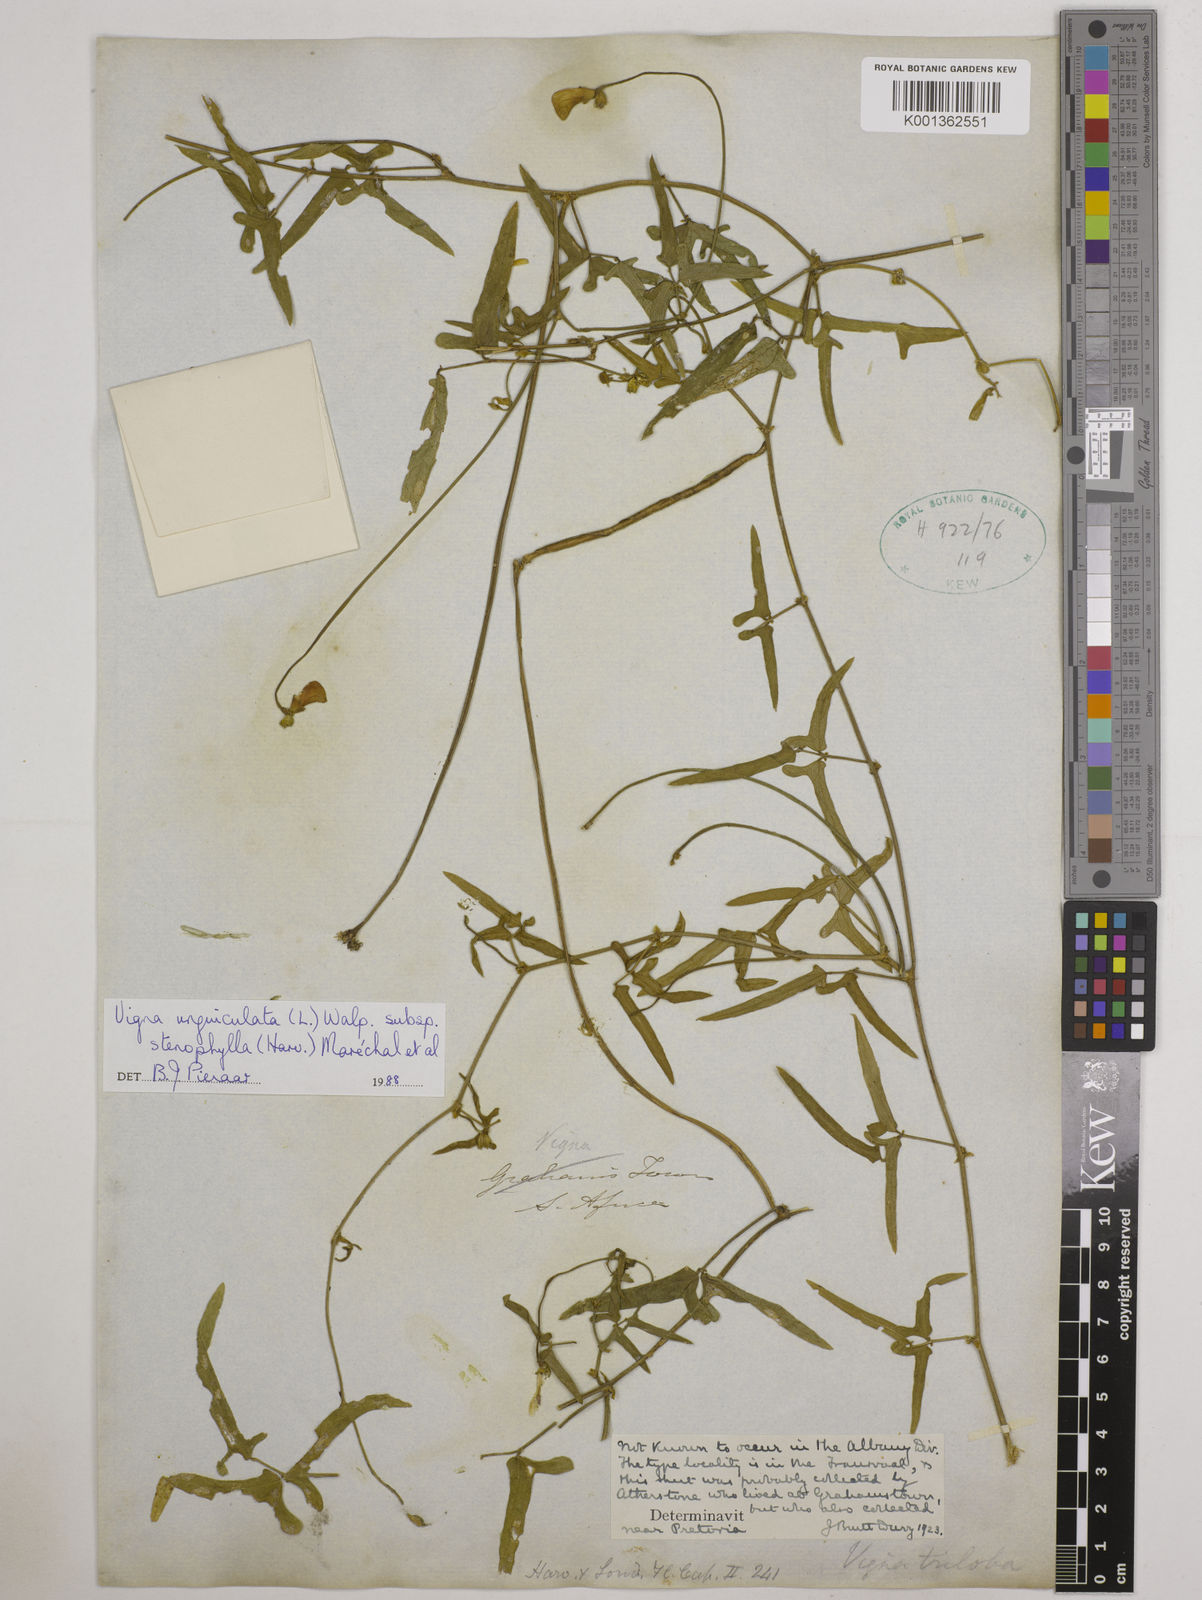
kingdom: Plantae
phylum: Tracheophyta
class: Magnoliopsida
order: Fabales
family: Fabaceae
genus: Vigna
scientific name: Vigna
